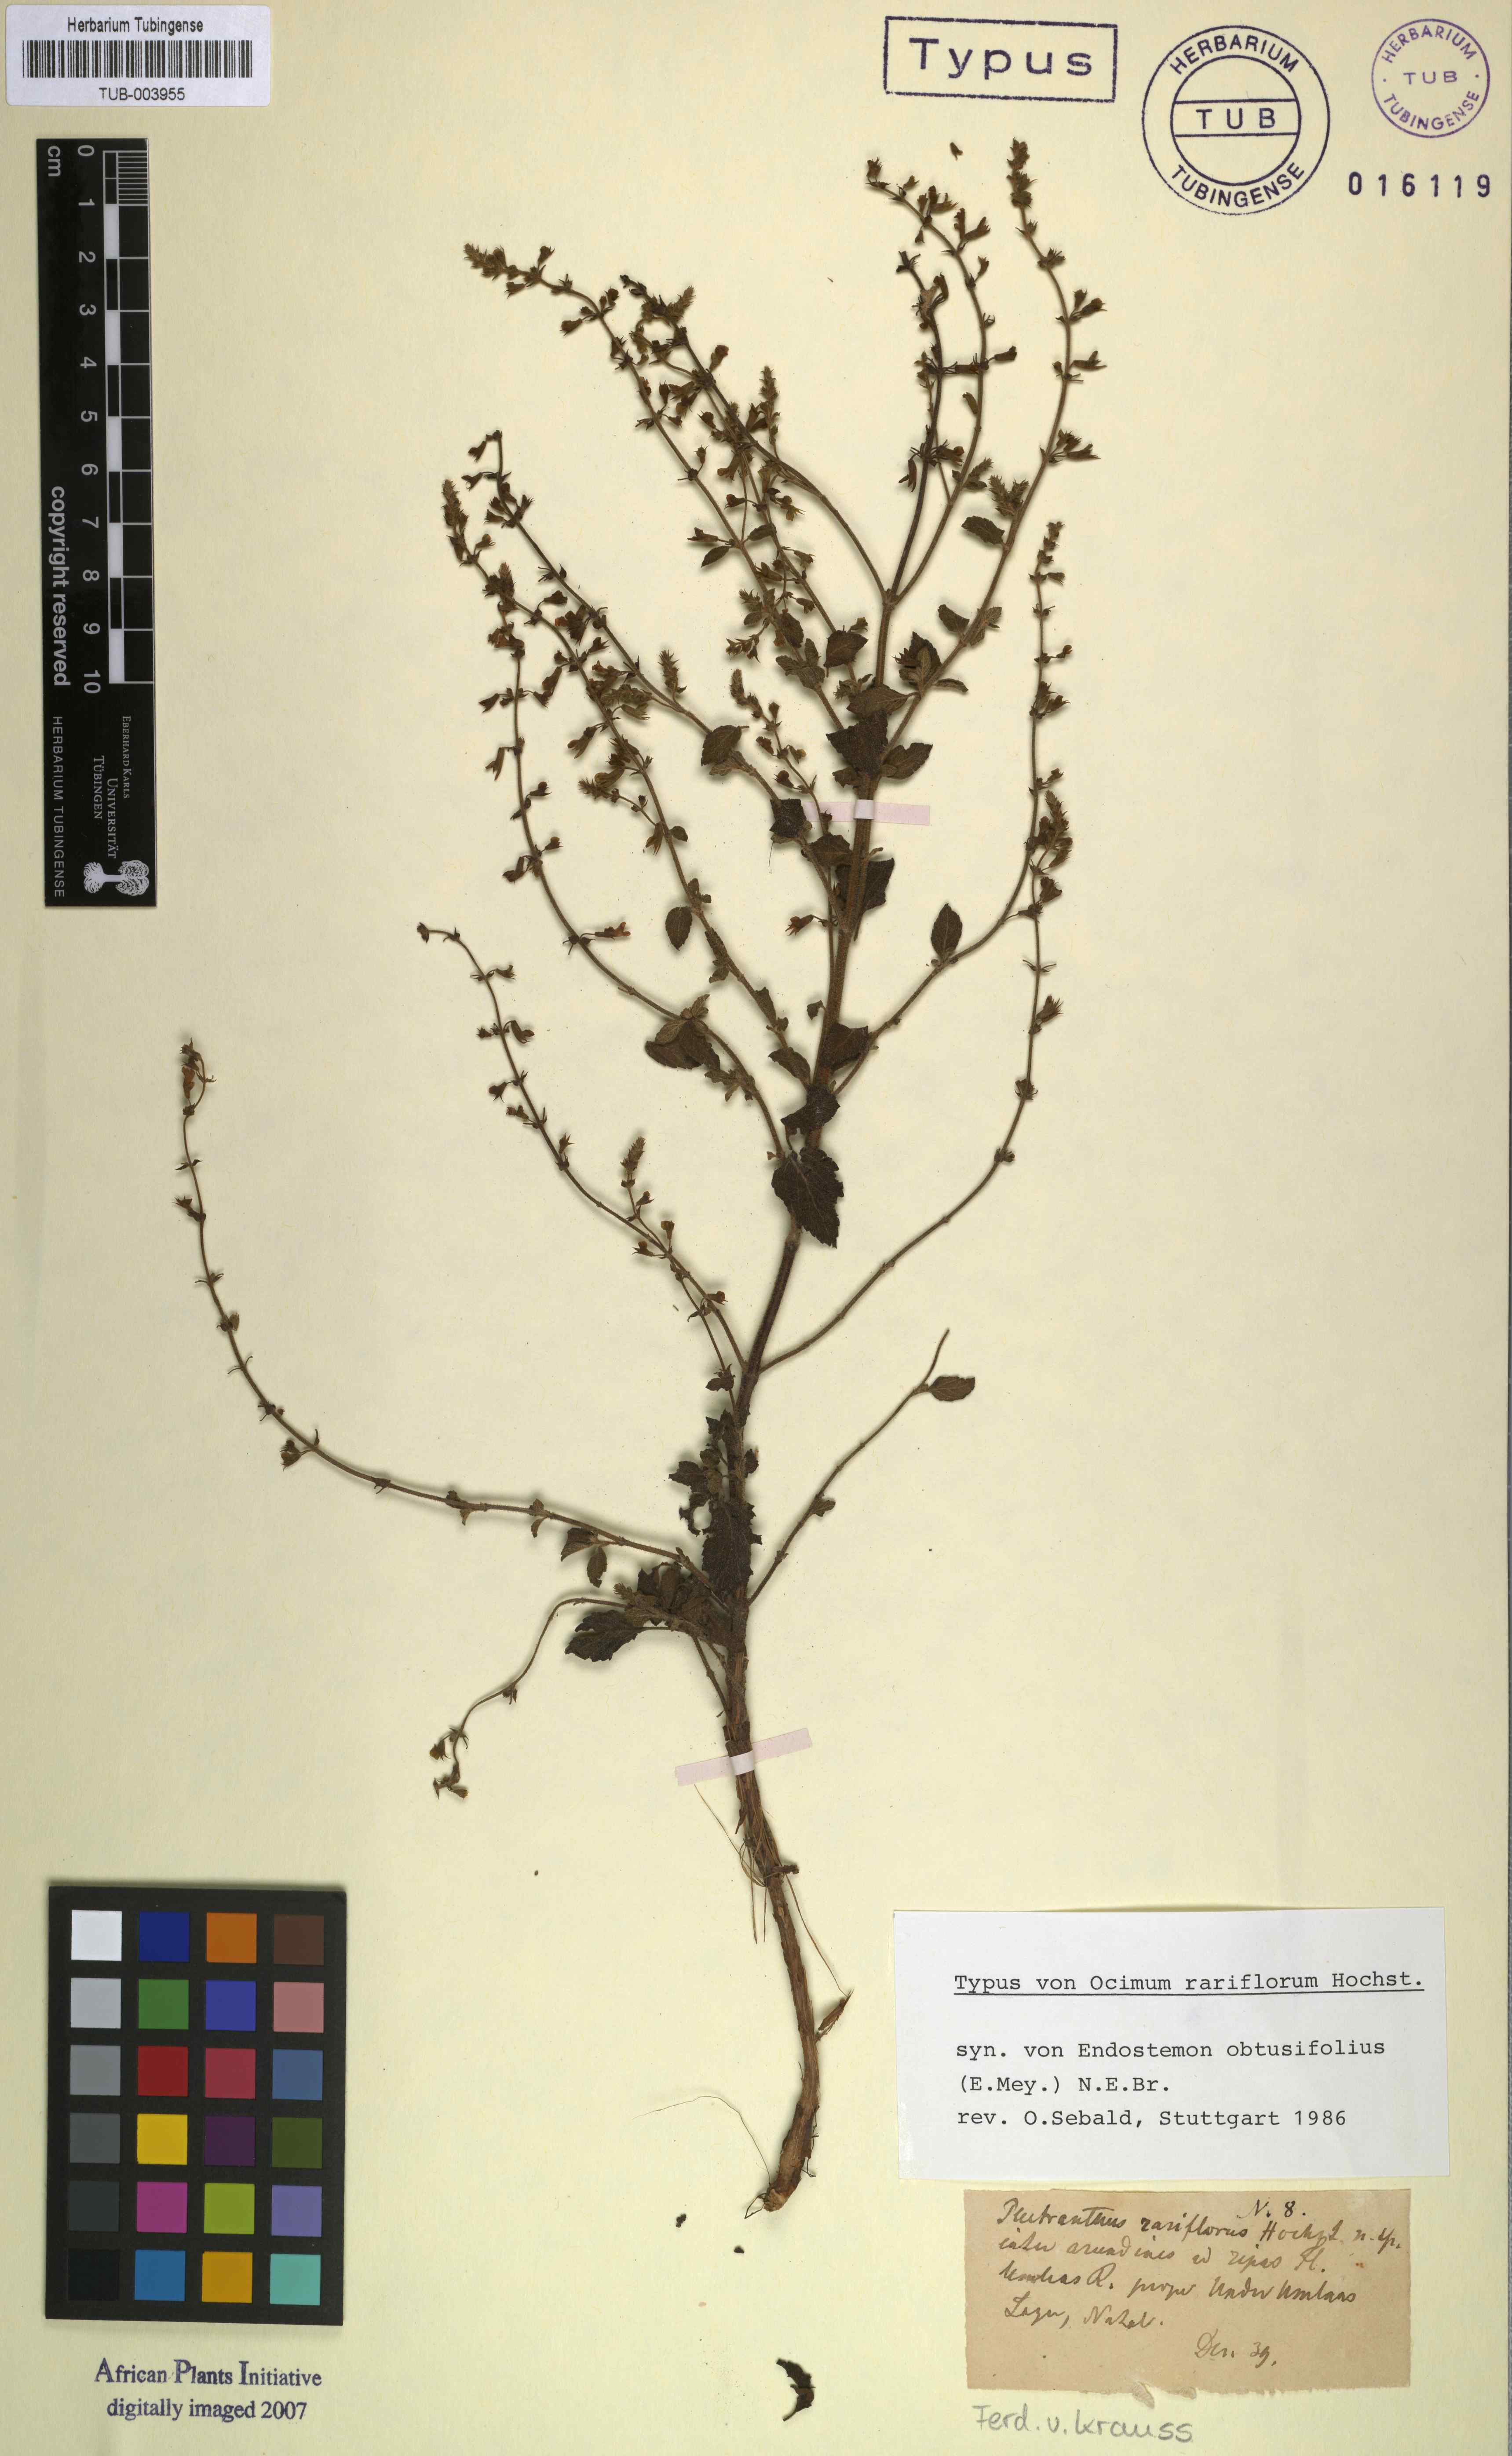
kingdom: Plantae
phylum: Tracheophyta
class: Magnoliopsida
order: Lamiales
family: Lamiaceae
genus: Endostemon
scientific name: Endostemon obtusifolius
